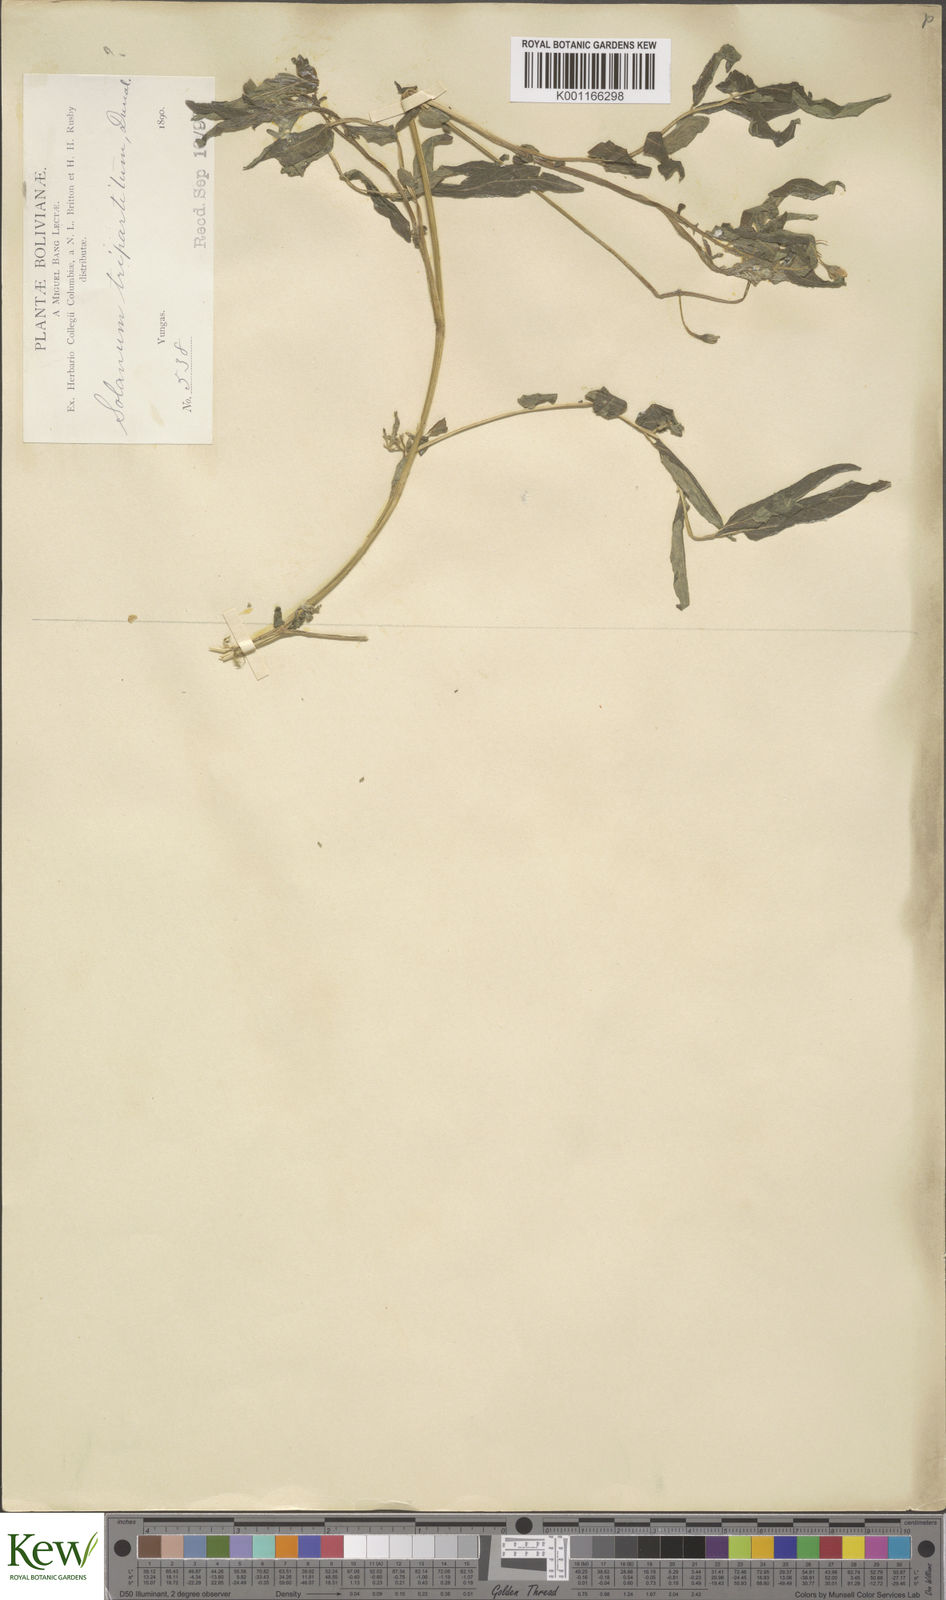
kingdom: Plantae
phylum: Tracheophyta
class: Magnoliopsida
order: Solanales
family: Solanaceae
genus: Solanum
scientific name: Solanum tripartitum
